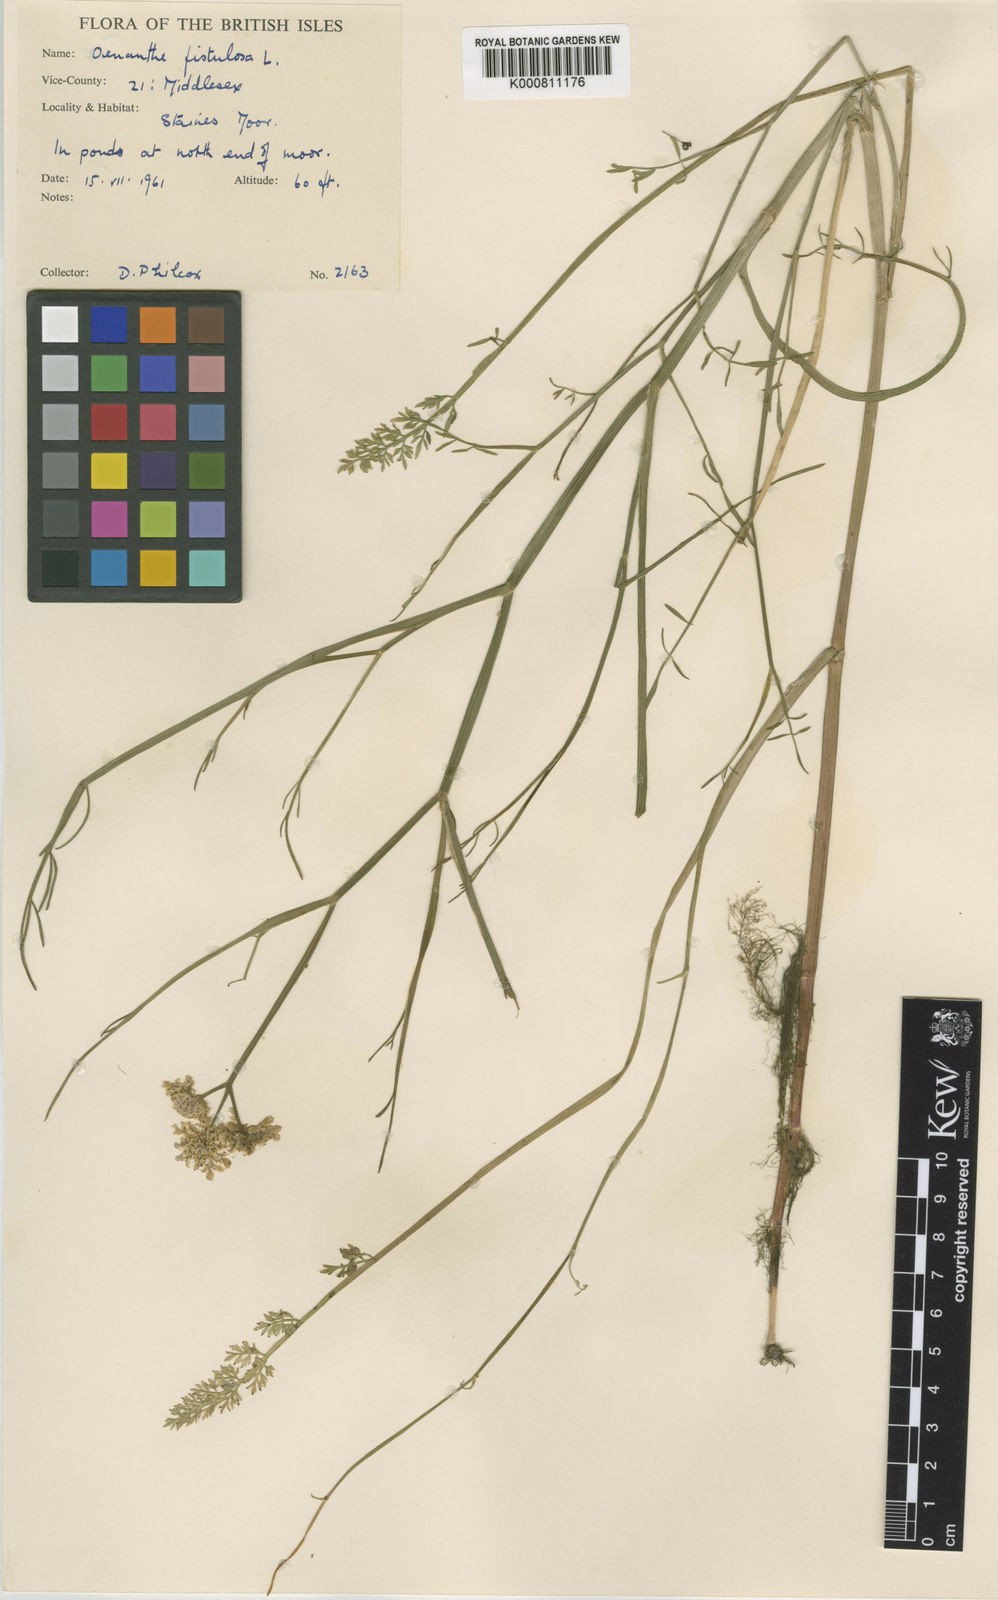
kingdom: Plantae
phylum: Tracheophyta
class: Magnoliopsida
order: Apiales
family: Apiaceae
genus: Oenanthe
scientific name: Oenanthe fistulosa
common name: Tubular water-dropwort
